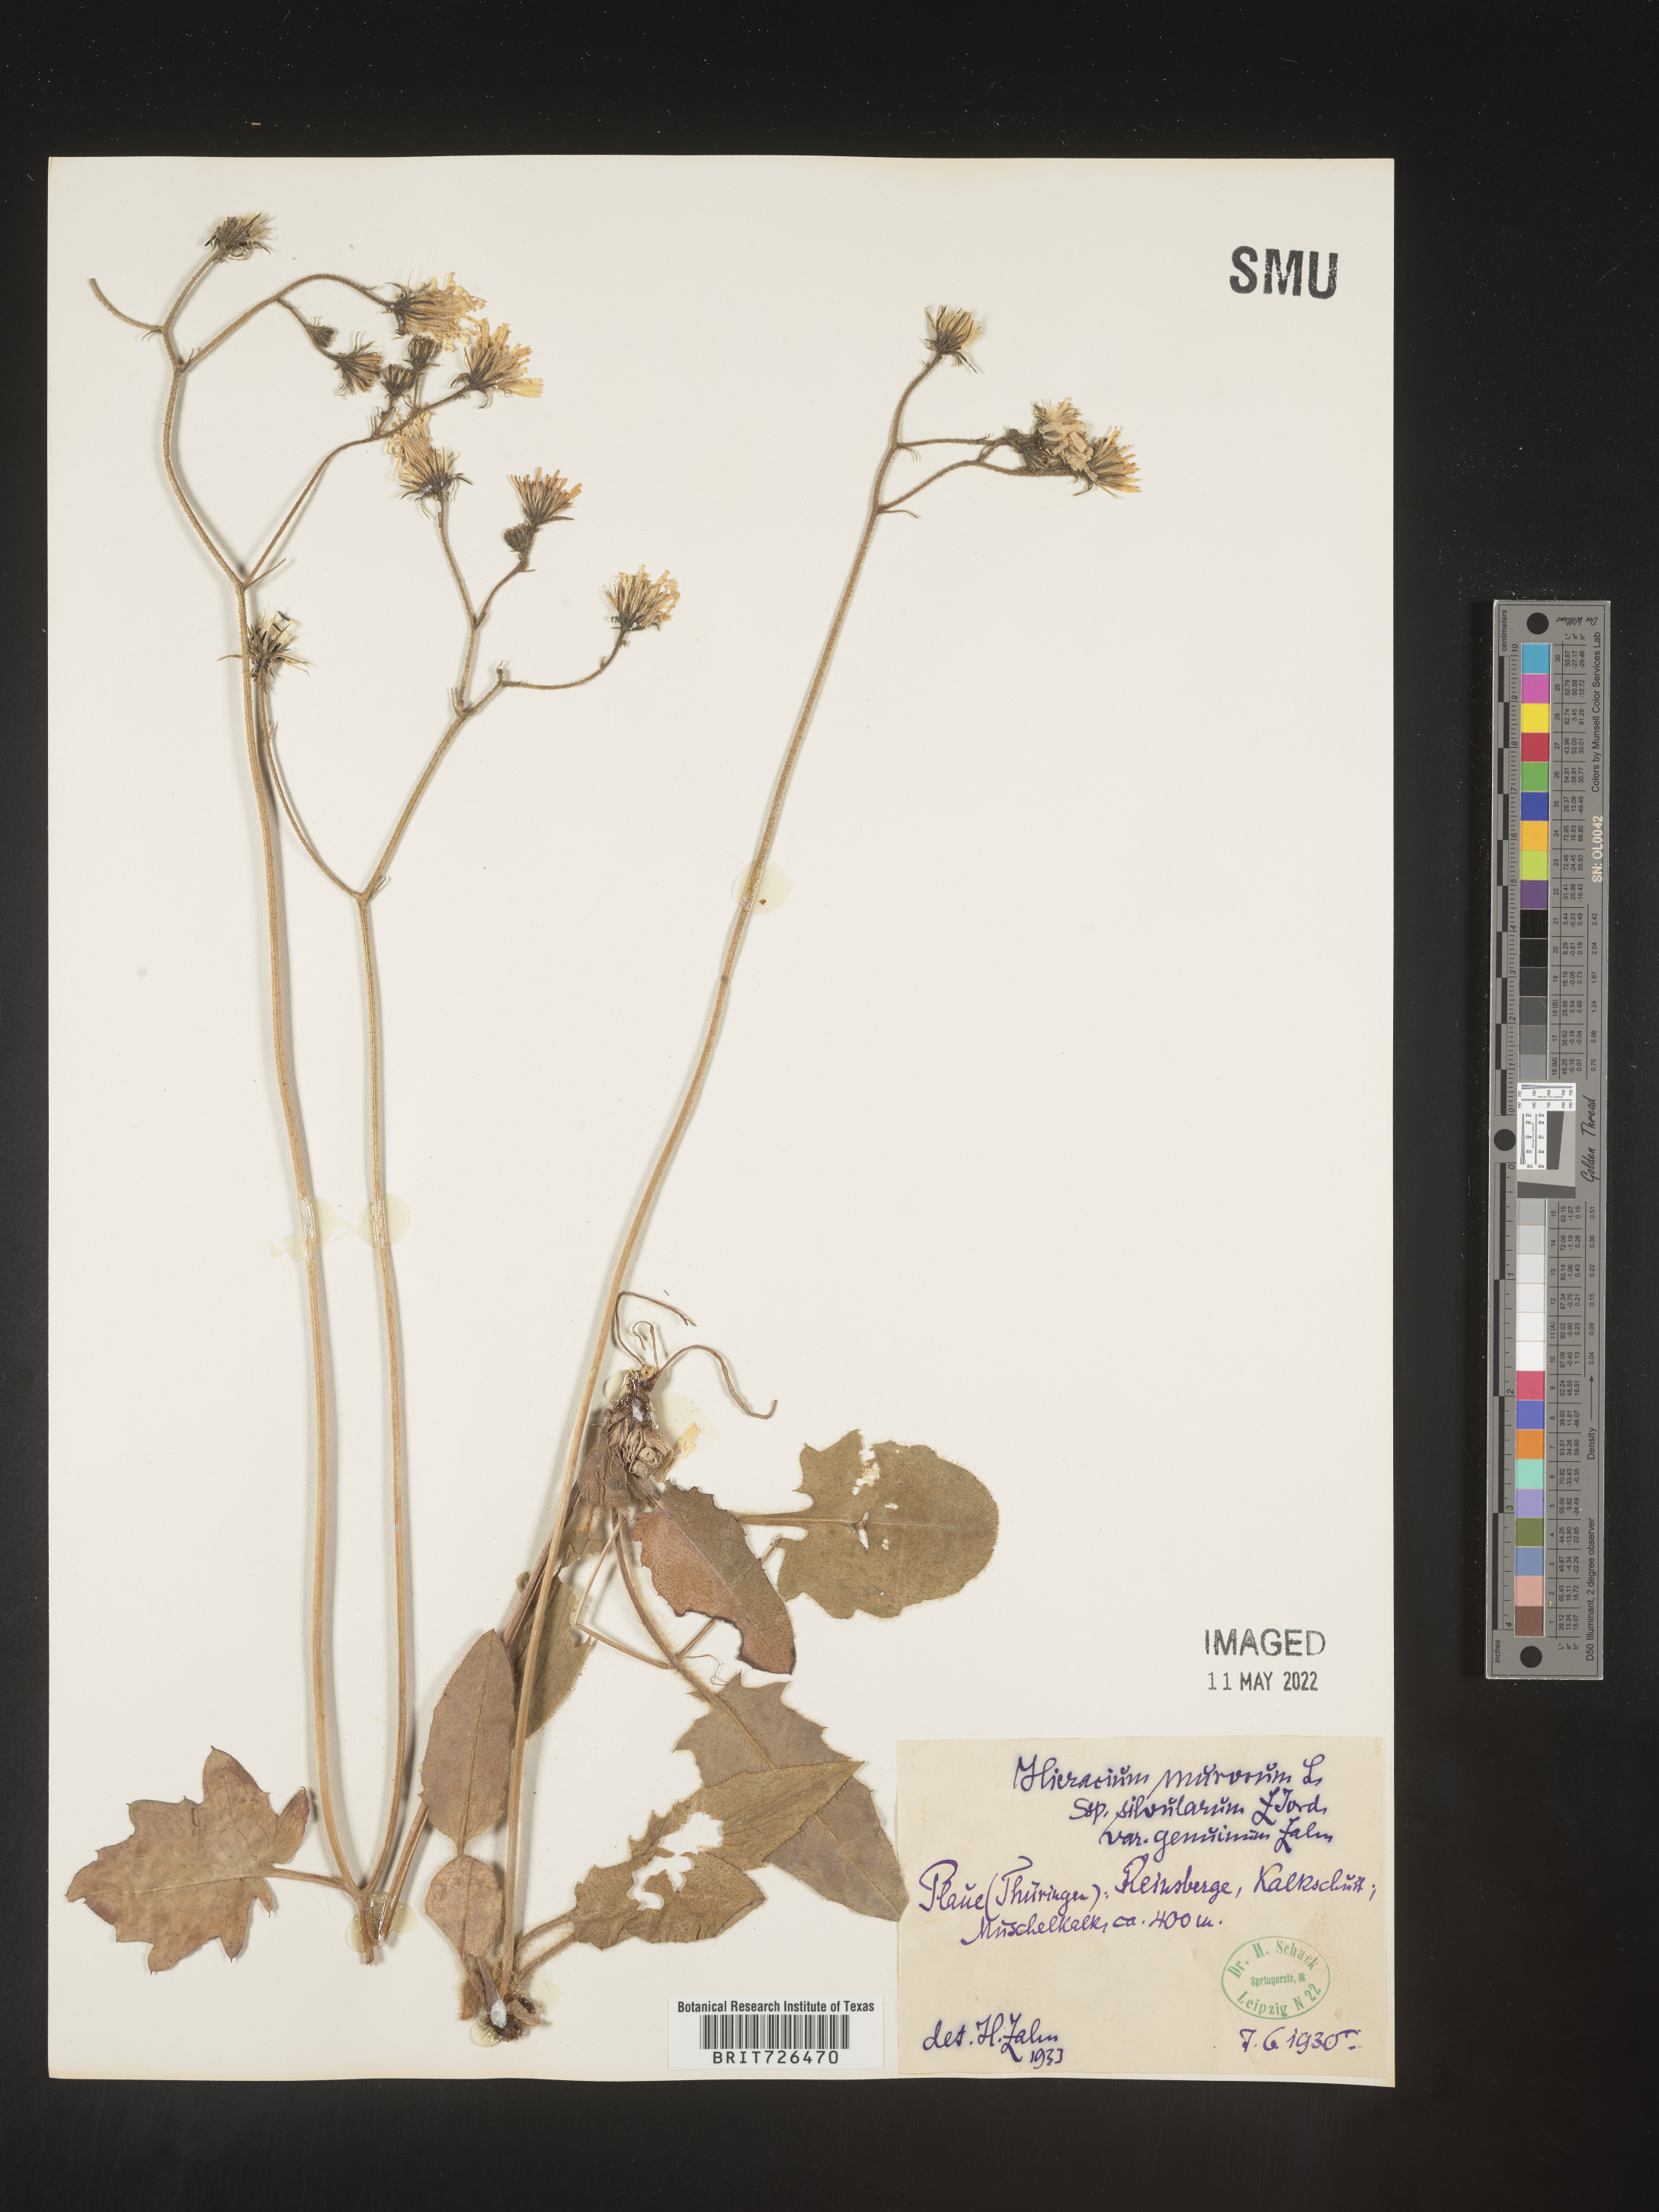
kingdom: Plantae
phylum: Tracheophyta
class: Magnoliopsida
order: Asterales
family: Asteraceae
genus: Hieracium
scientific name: Hieracium
